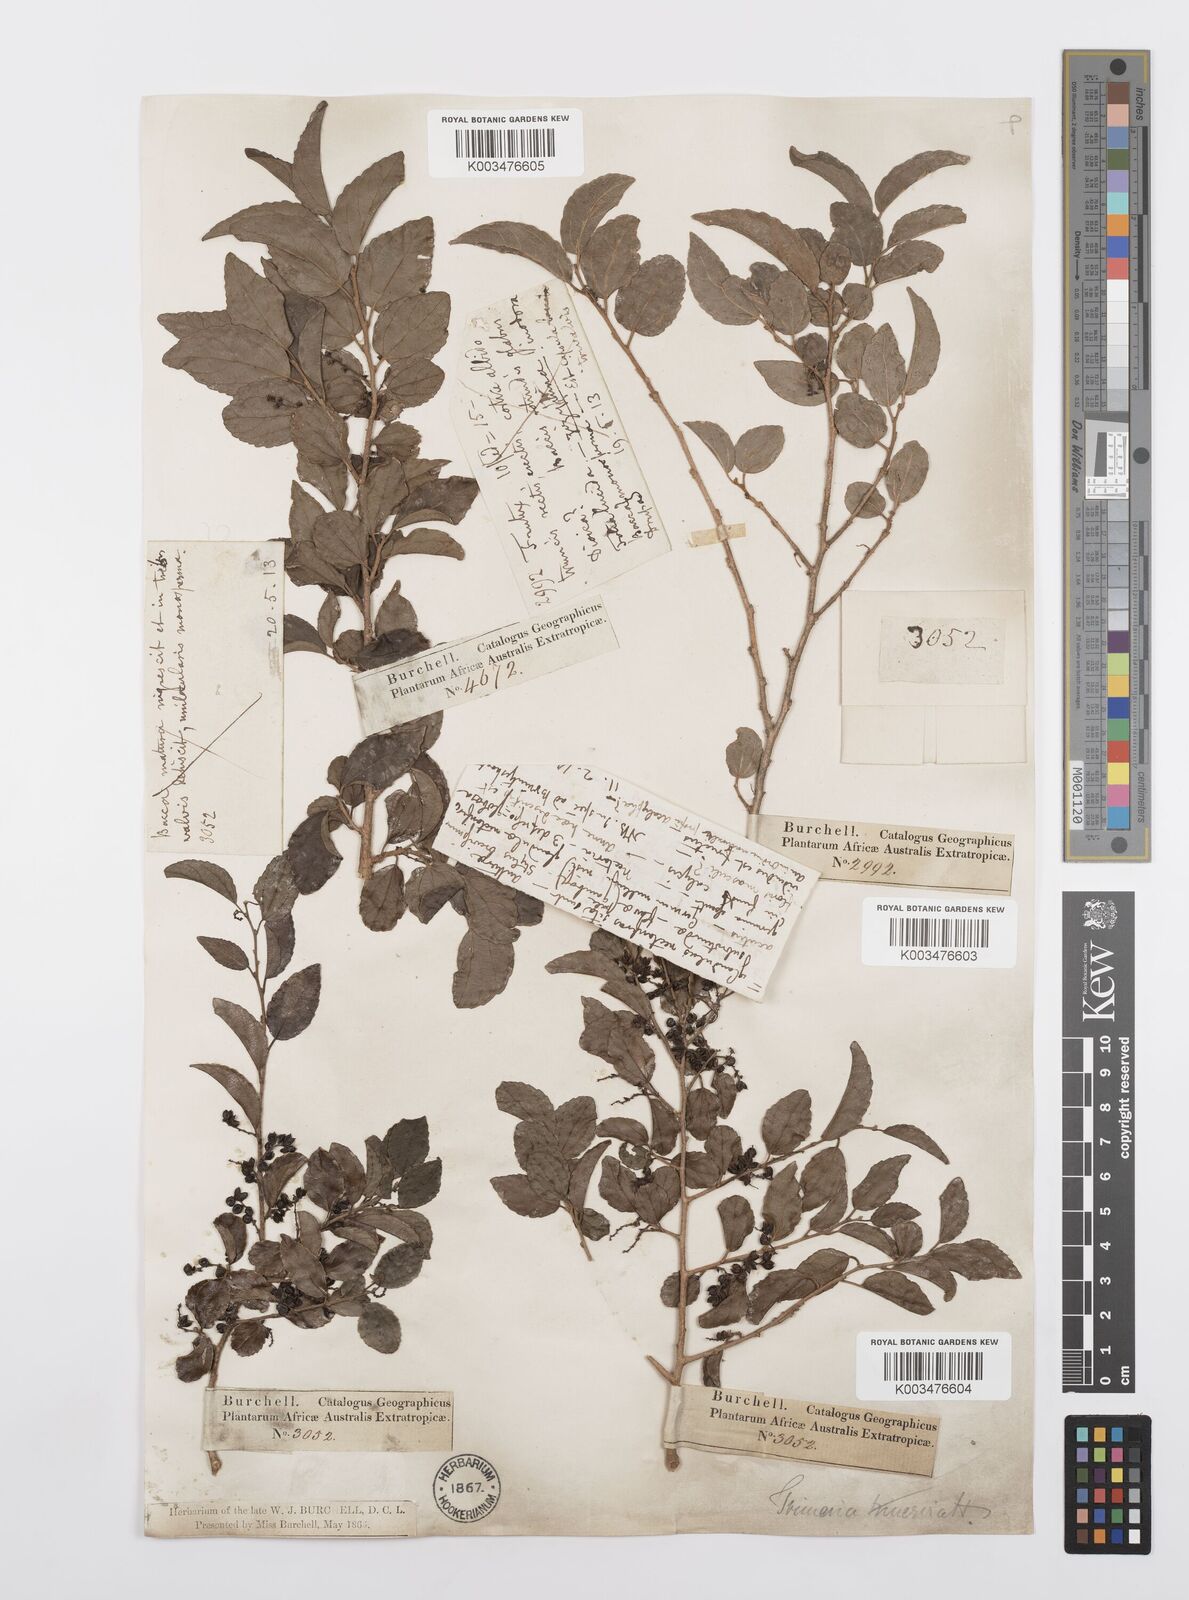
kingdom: Plantae
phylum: Tracheophyta
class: Magnoliopsida
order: Malpighiales
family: Salicaceae
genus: Trimeria
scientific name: Trimeria trinervis
